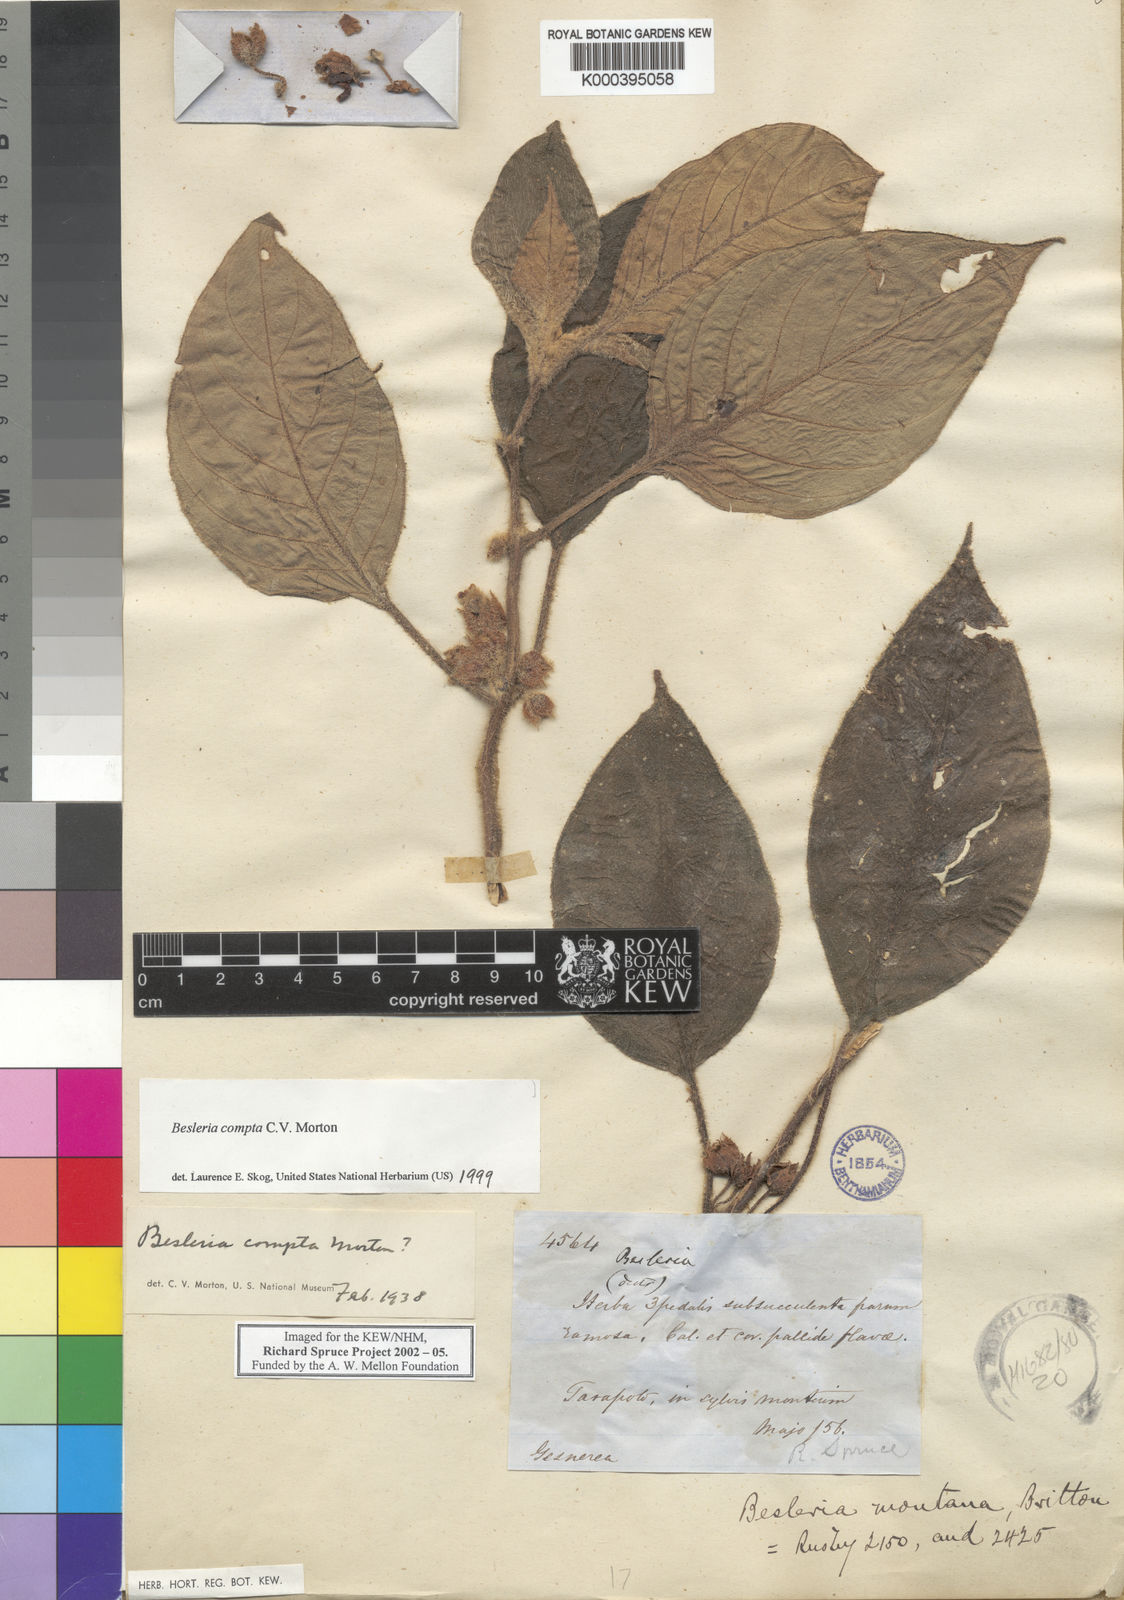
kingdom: Plantae
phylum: Tracheophyta
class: Magnoliopsida
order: Lamiales
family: Gesneriaceae
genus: Besleria
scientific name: Besleria compta
